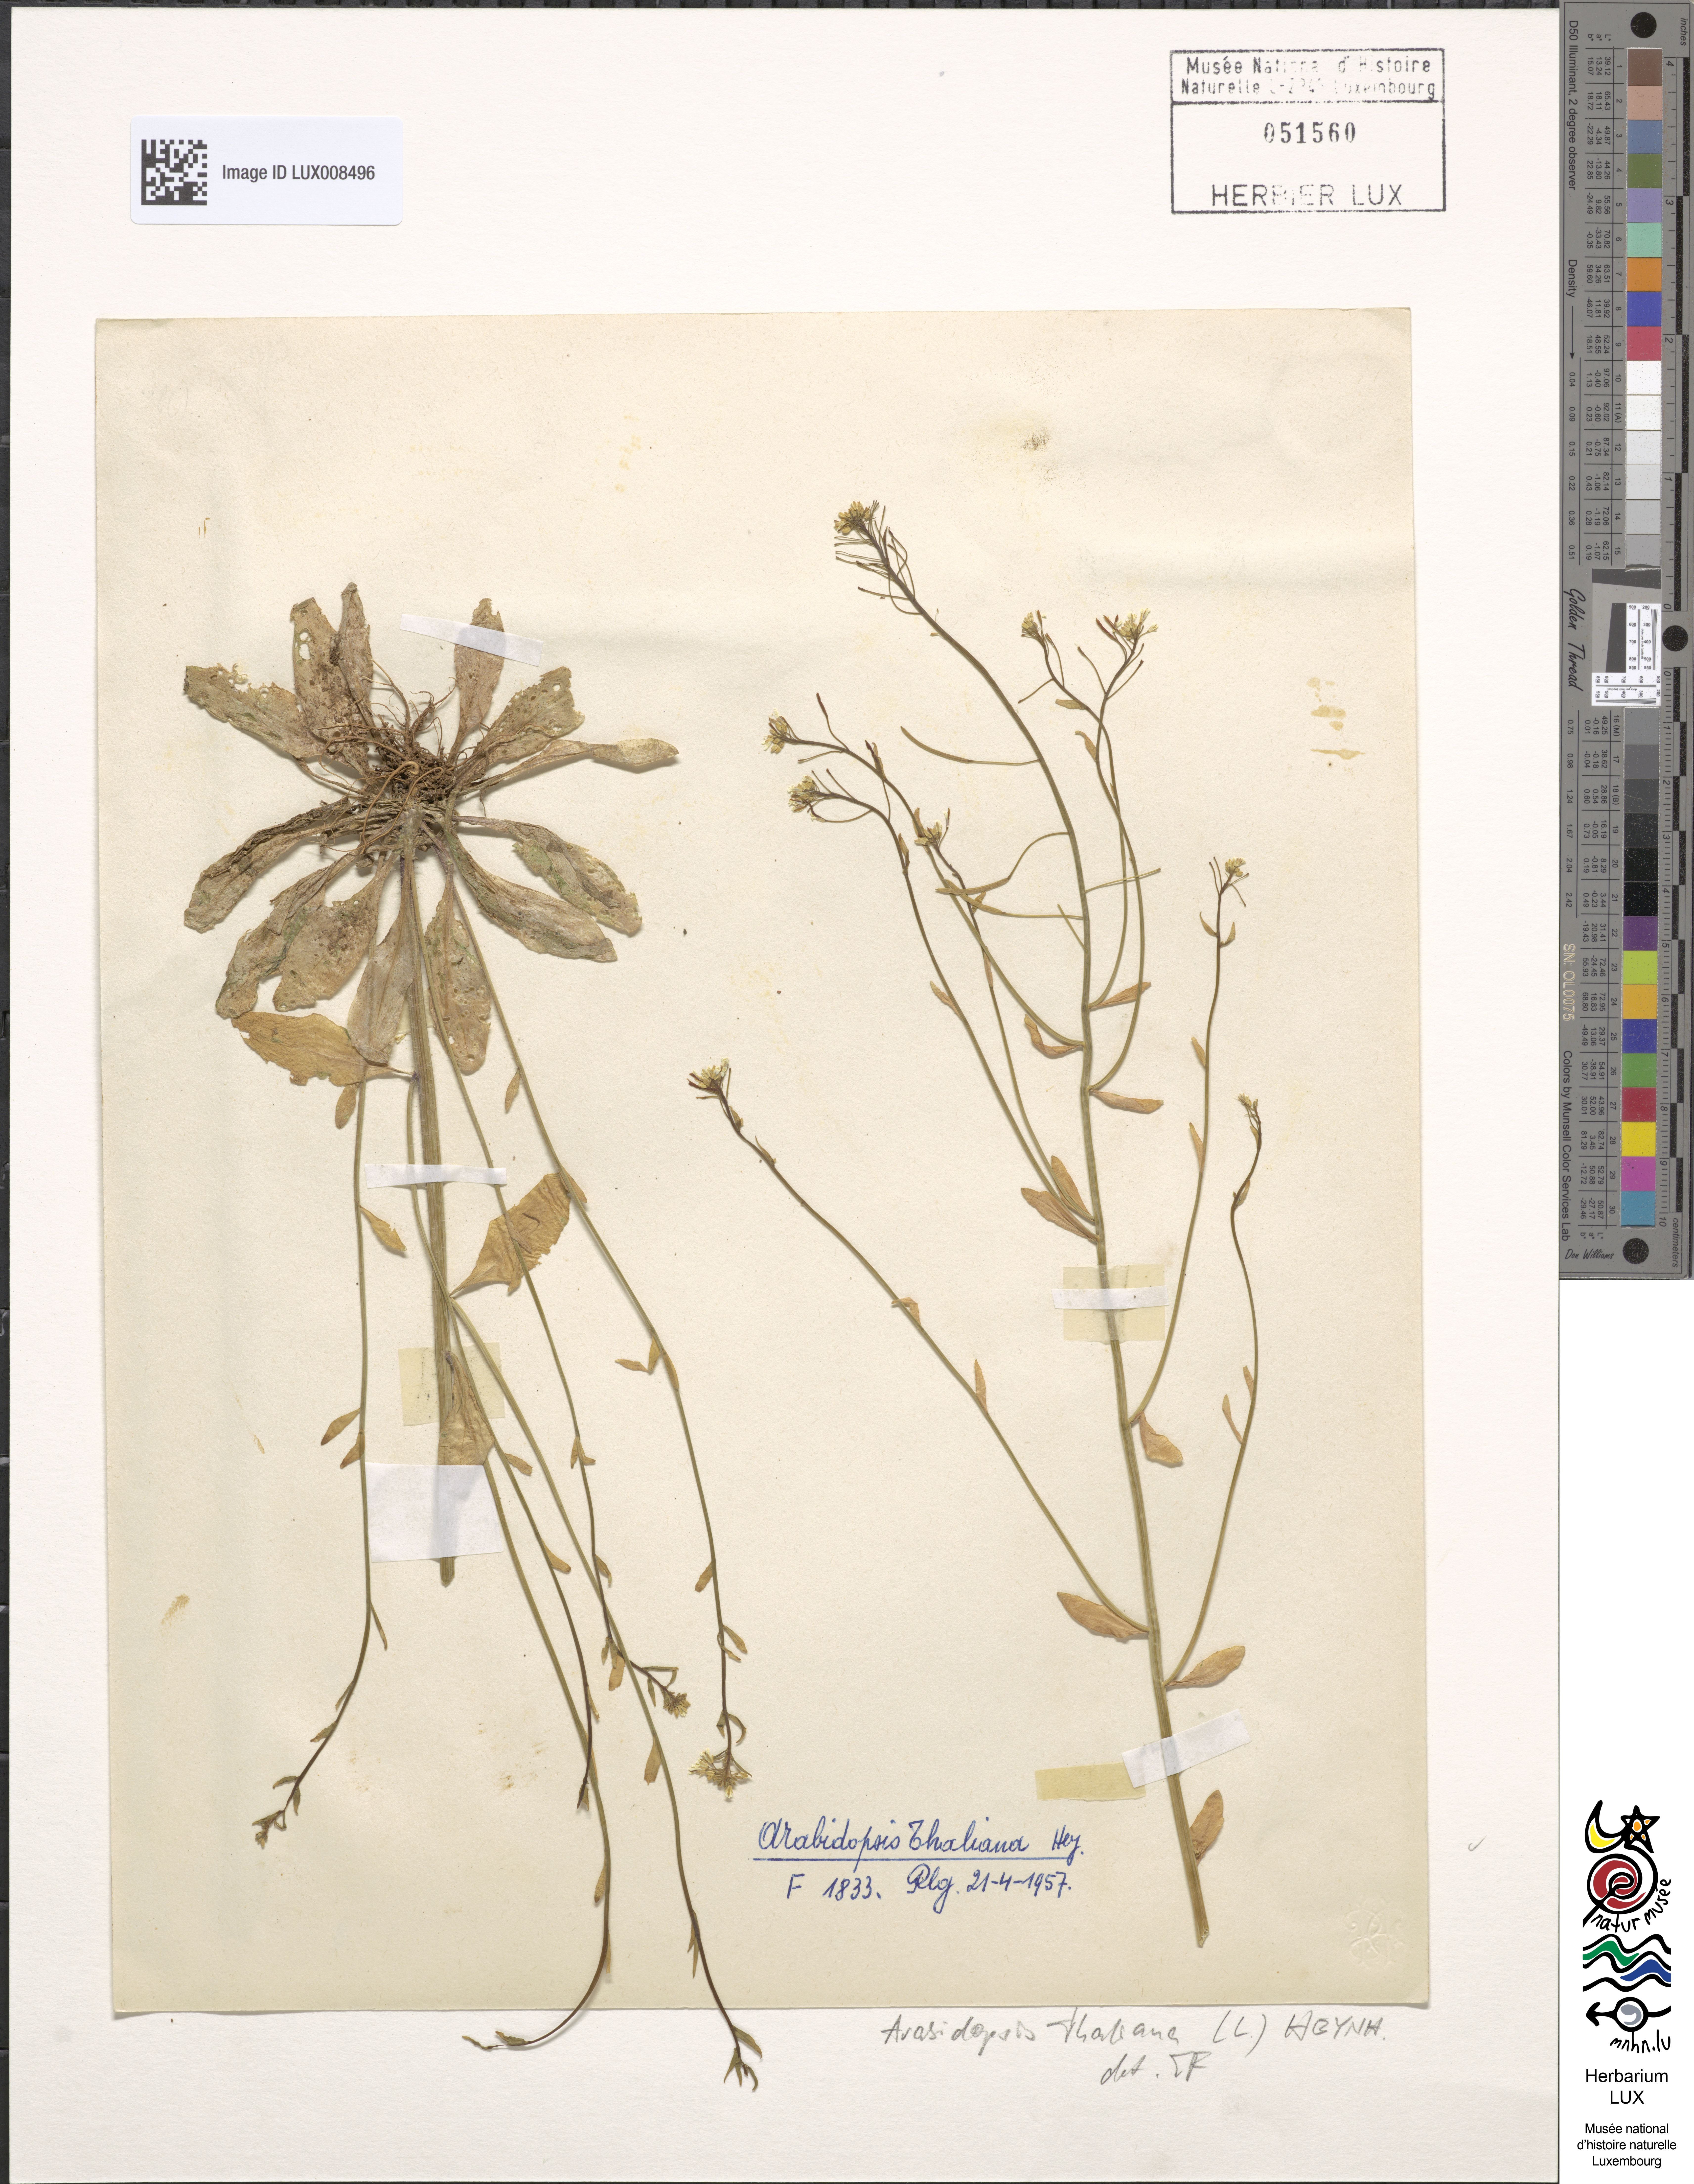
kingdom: Plantae
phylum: Tracheophyta
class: Magnoliopsida
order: Brassicales
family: Brassicaceae
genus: Arabidopsis
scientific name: Arabidopsis thaliana
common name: Thale cress
